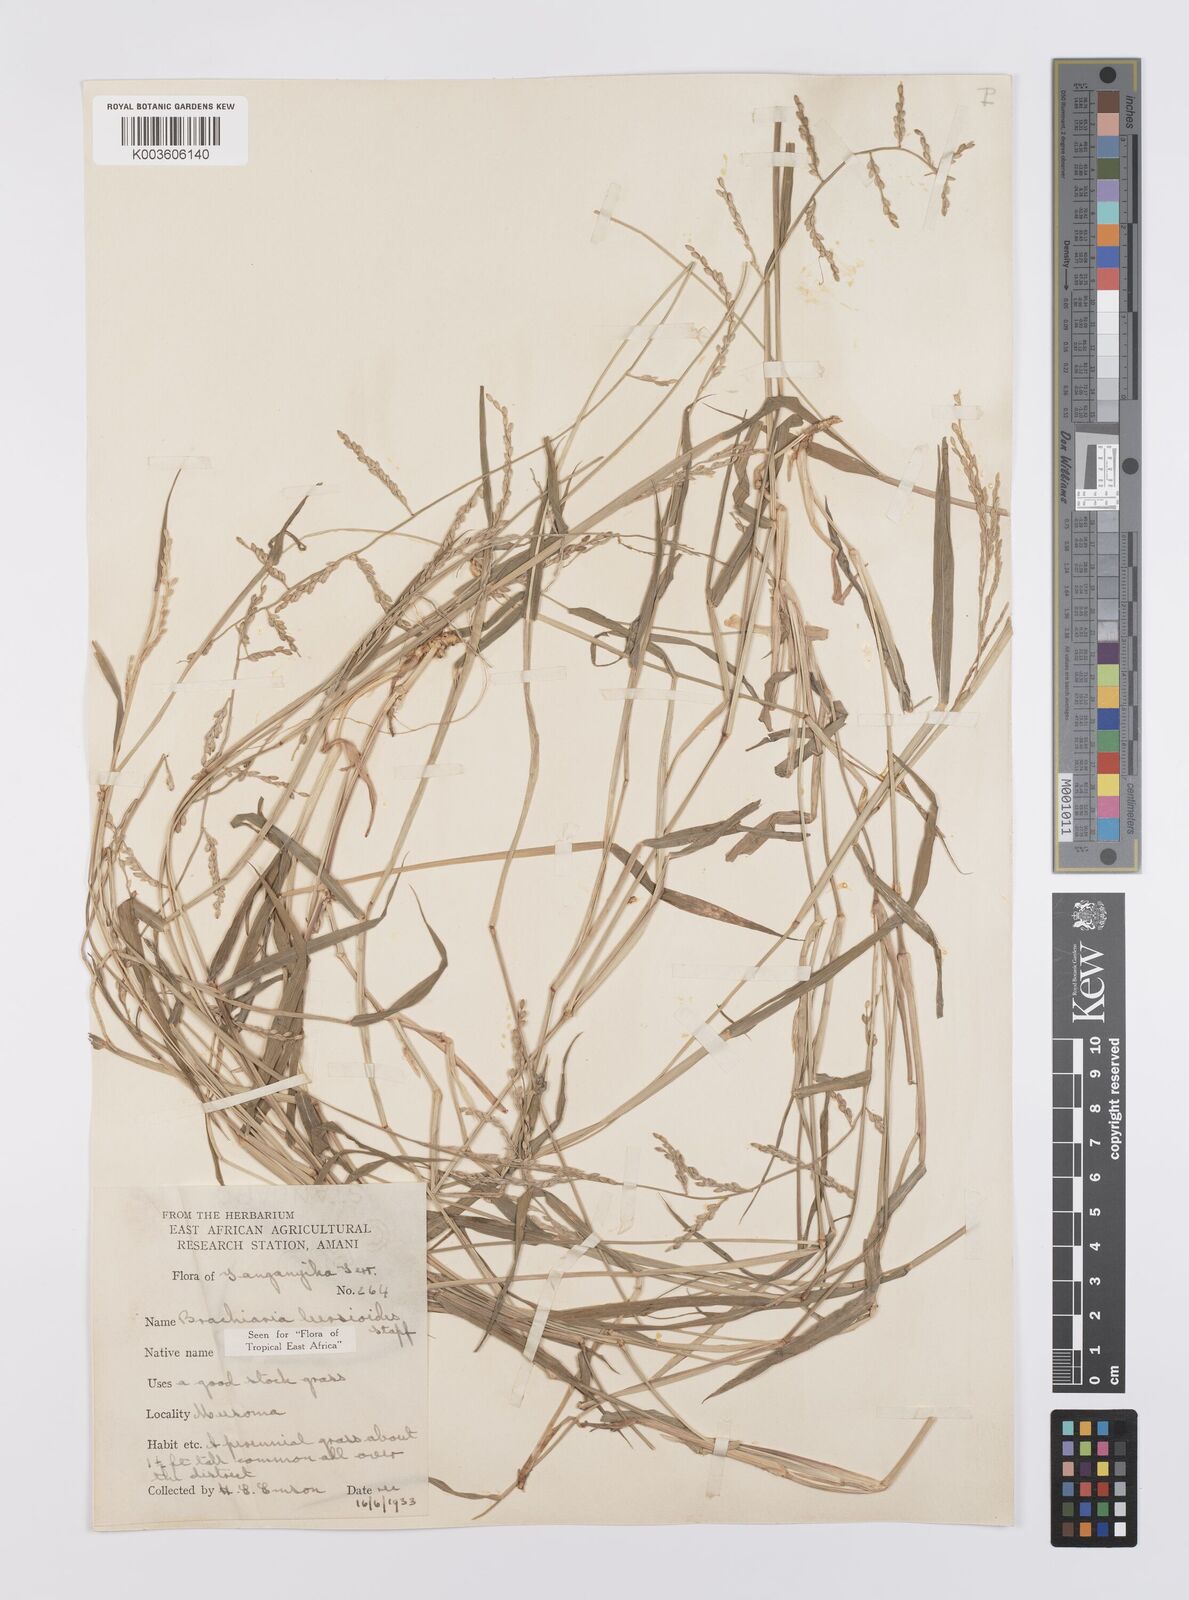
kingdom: Plantae
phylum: Tracheophyta
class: Liliopsida
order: Poales
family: Poaceae
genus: Urochloa
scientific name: Urochloa leersioides
